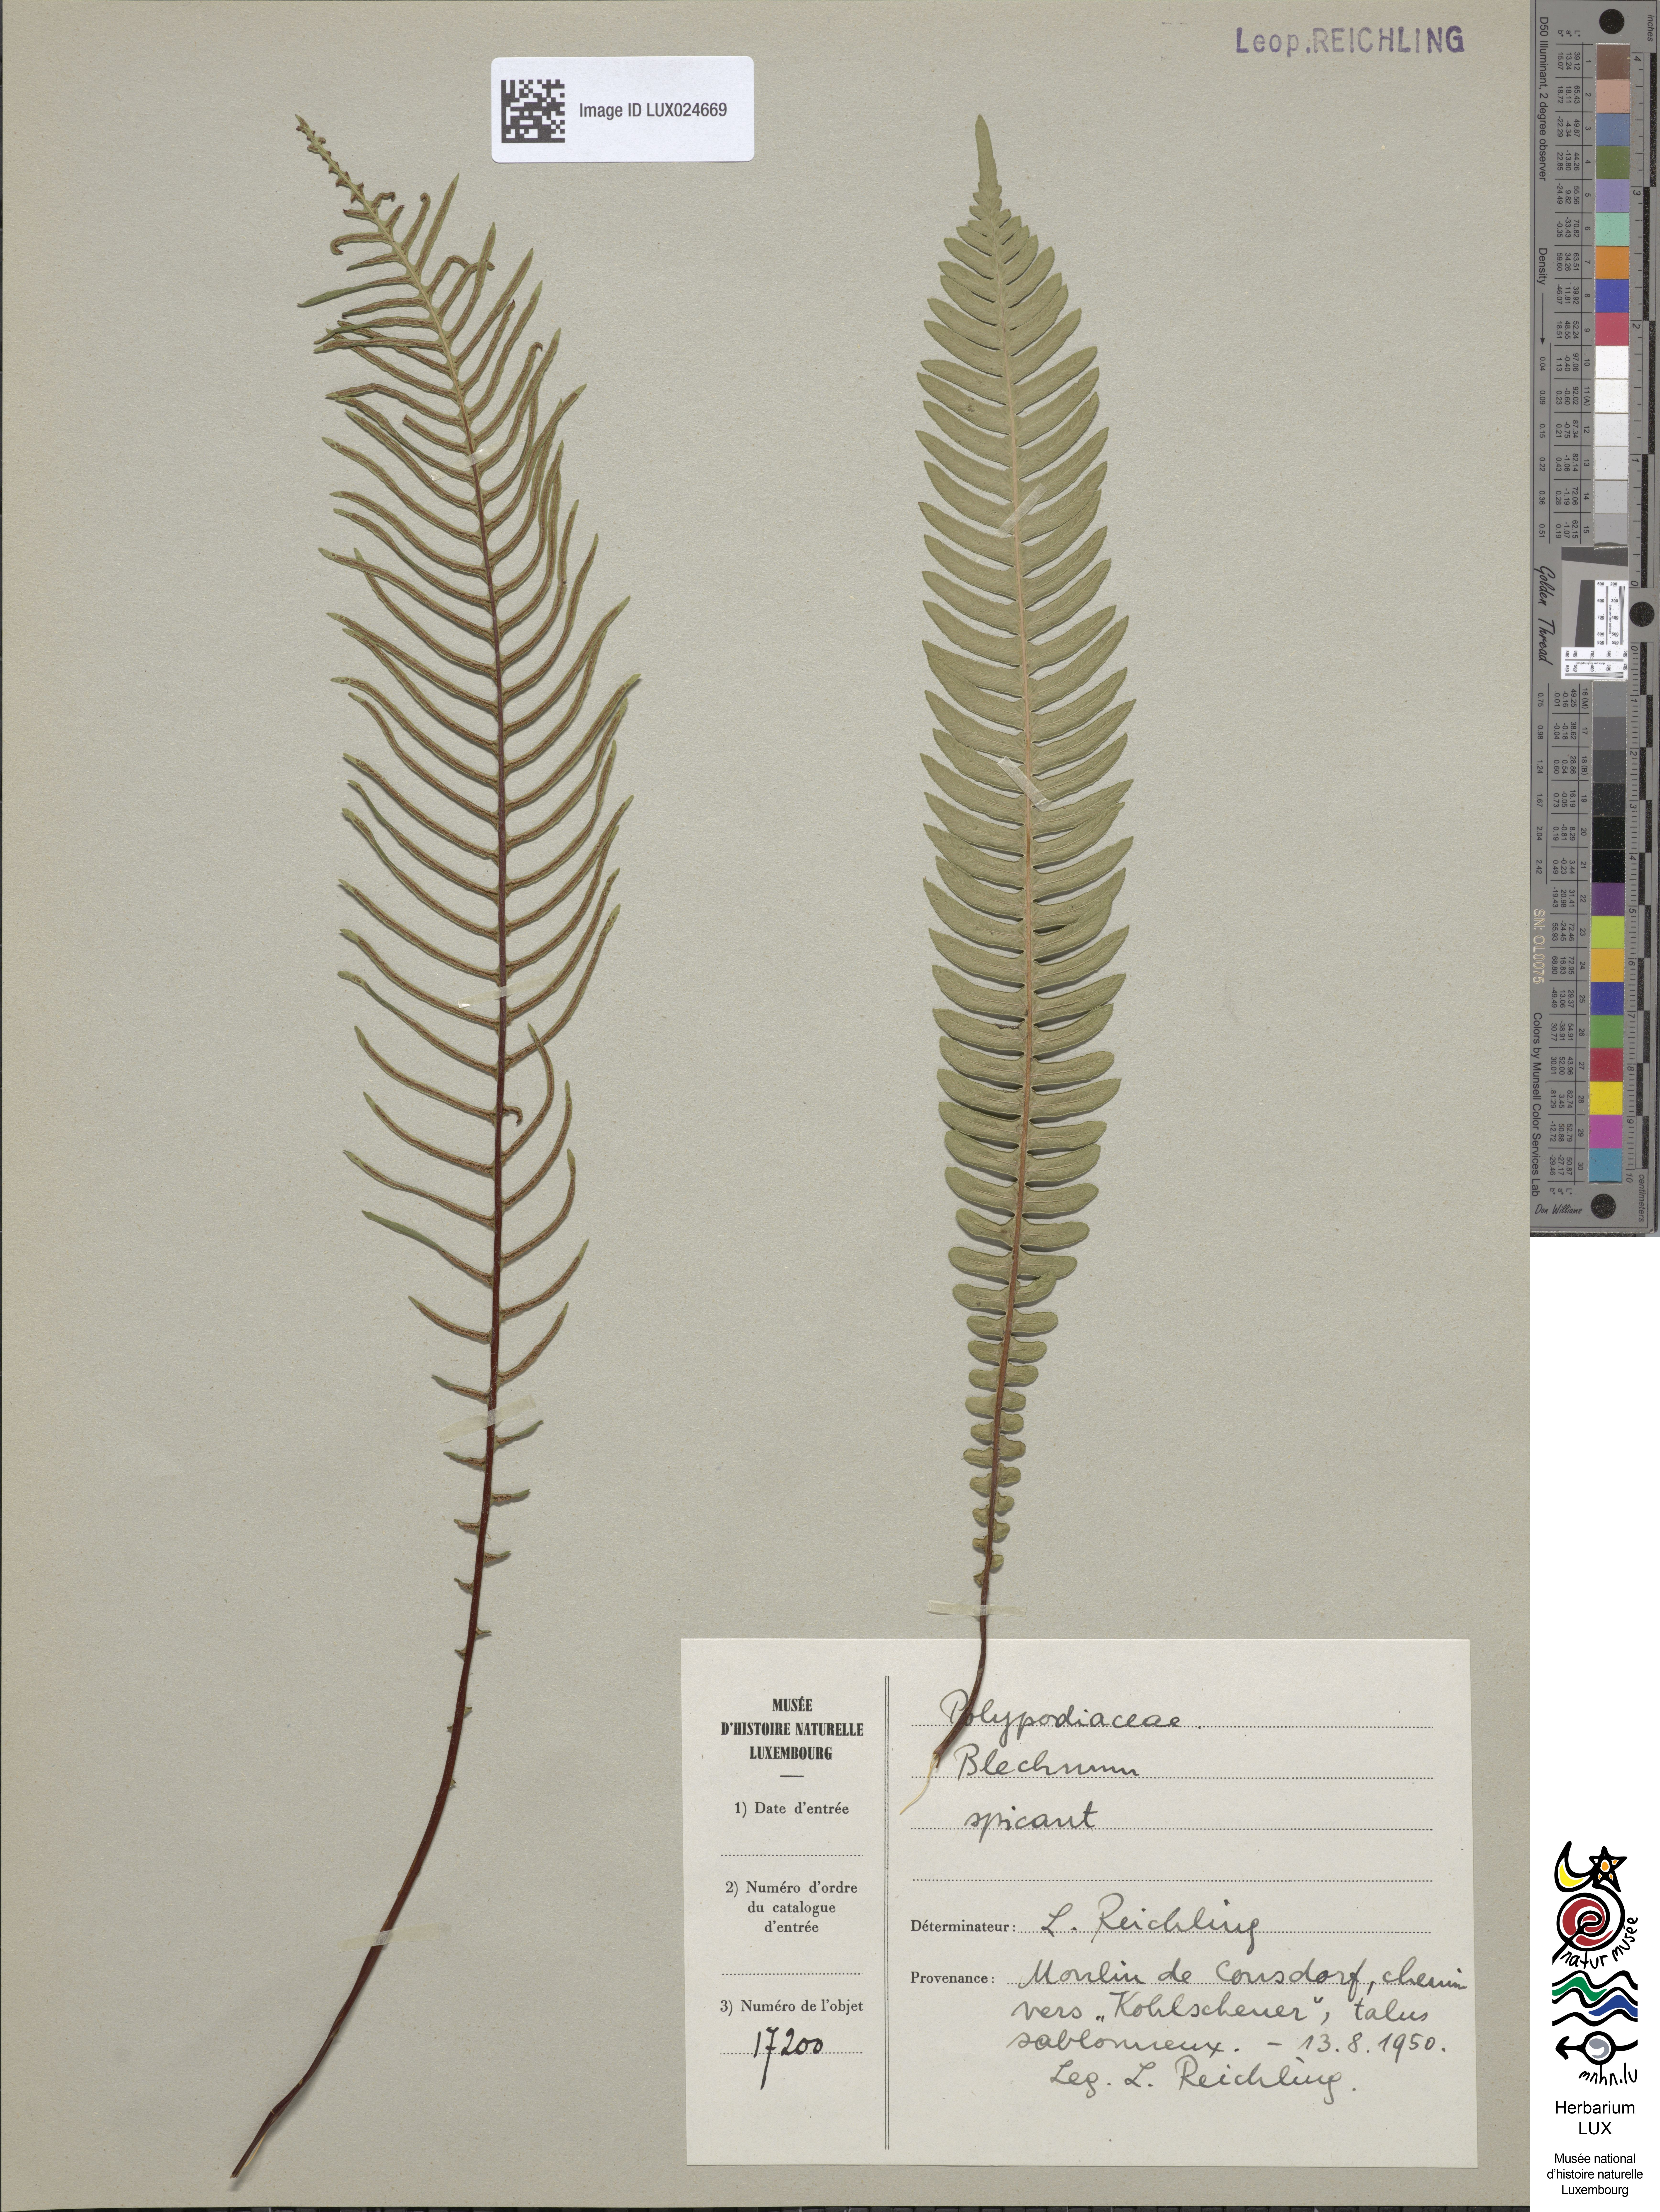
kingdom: Plantae
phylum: Tracheophyta
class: Polypodiopsida
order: Polypodiales
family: Blechnaceae
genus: Struthiopteris
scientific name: Struthiopteris spicant
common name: Deer fern
